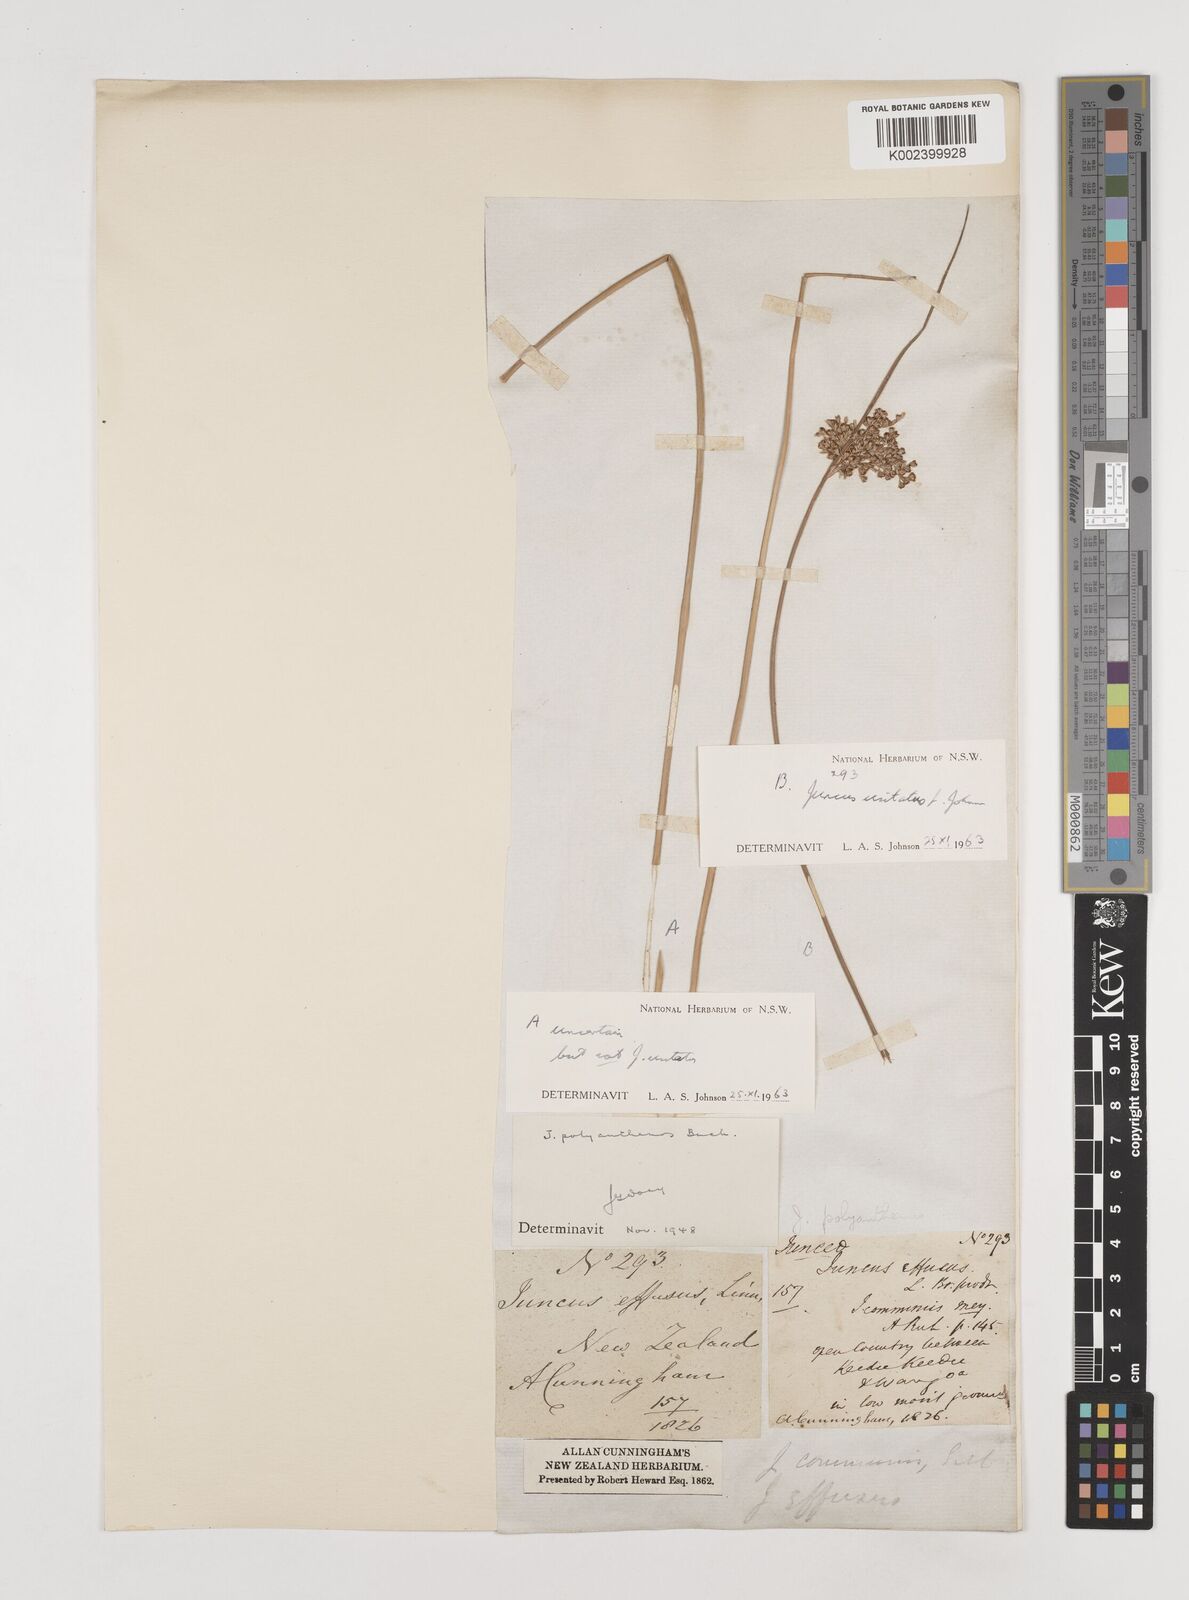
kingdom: Plantae
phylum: Tracheophyta
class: Liliopsida
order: Poales
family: Juncaceae
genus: Juncus
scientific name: Juncus usitatus
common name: Rush
